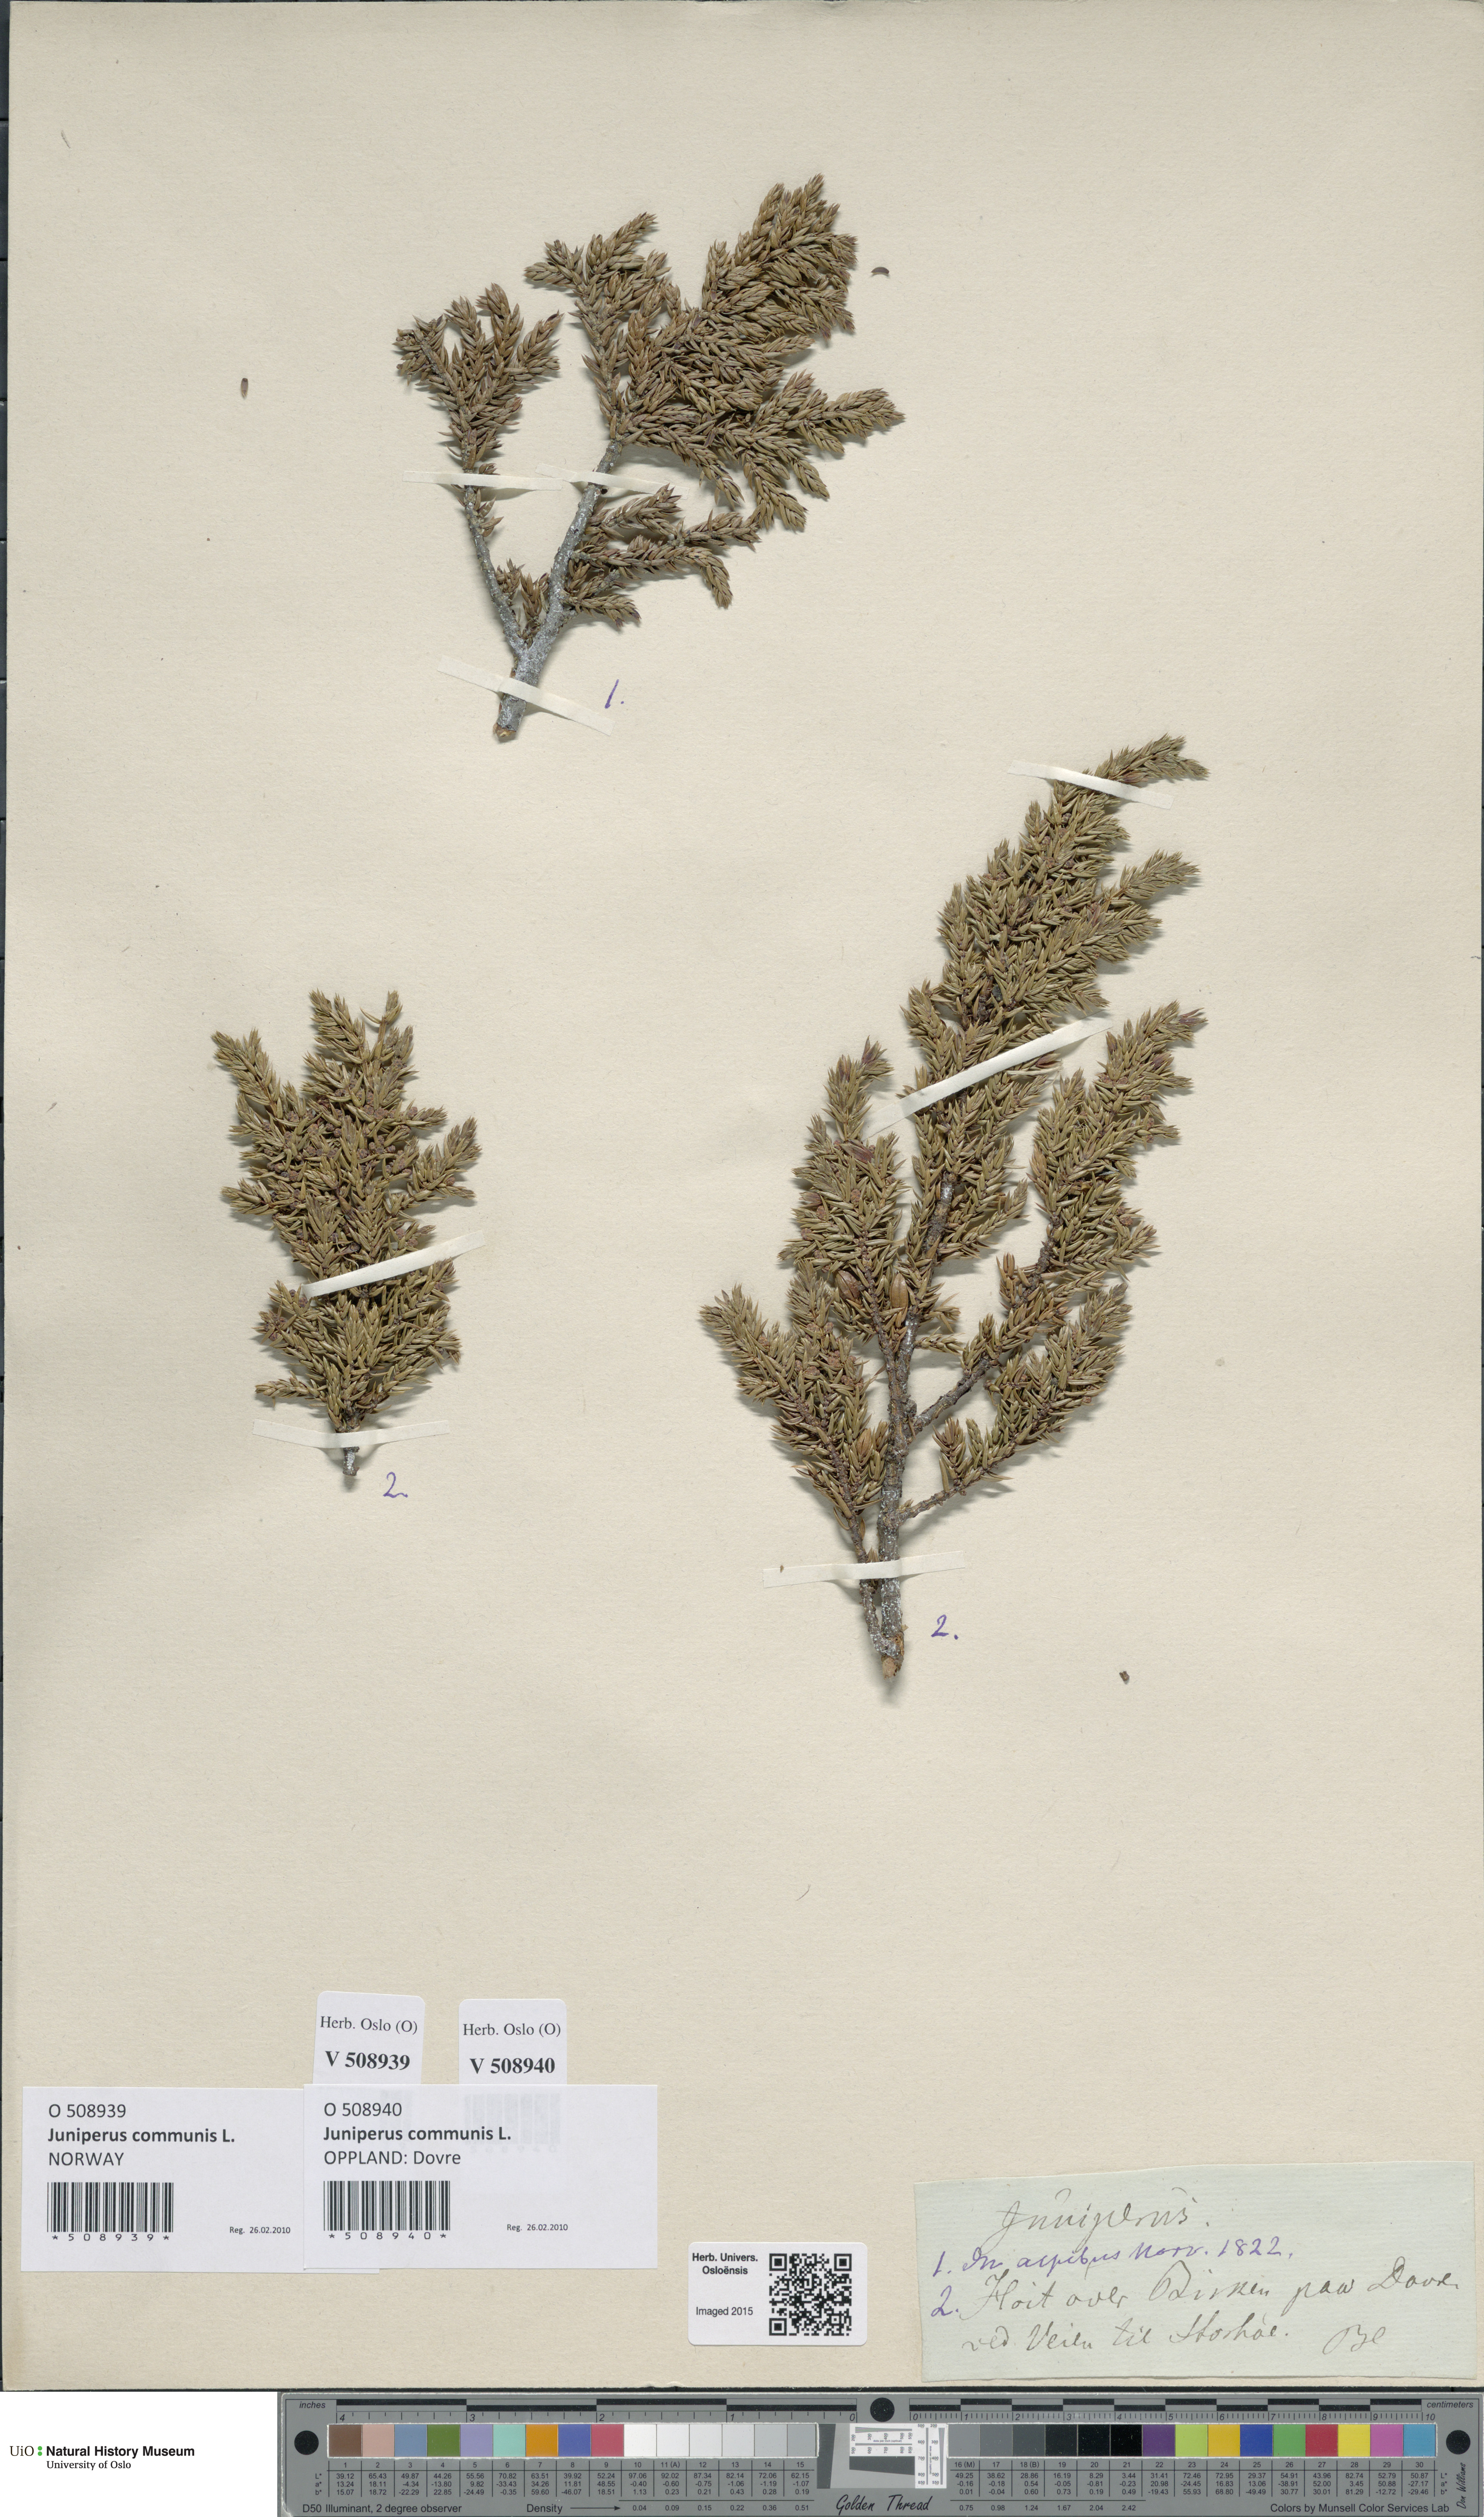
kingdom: Plantae
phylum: Tracheophyta
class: Pinopsida
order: Pinales
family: Cupressaceae
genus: Juniperus
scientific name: Juniperus communis
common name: Common juniper
